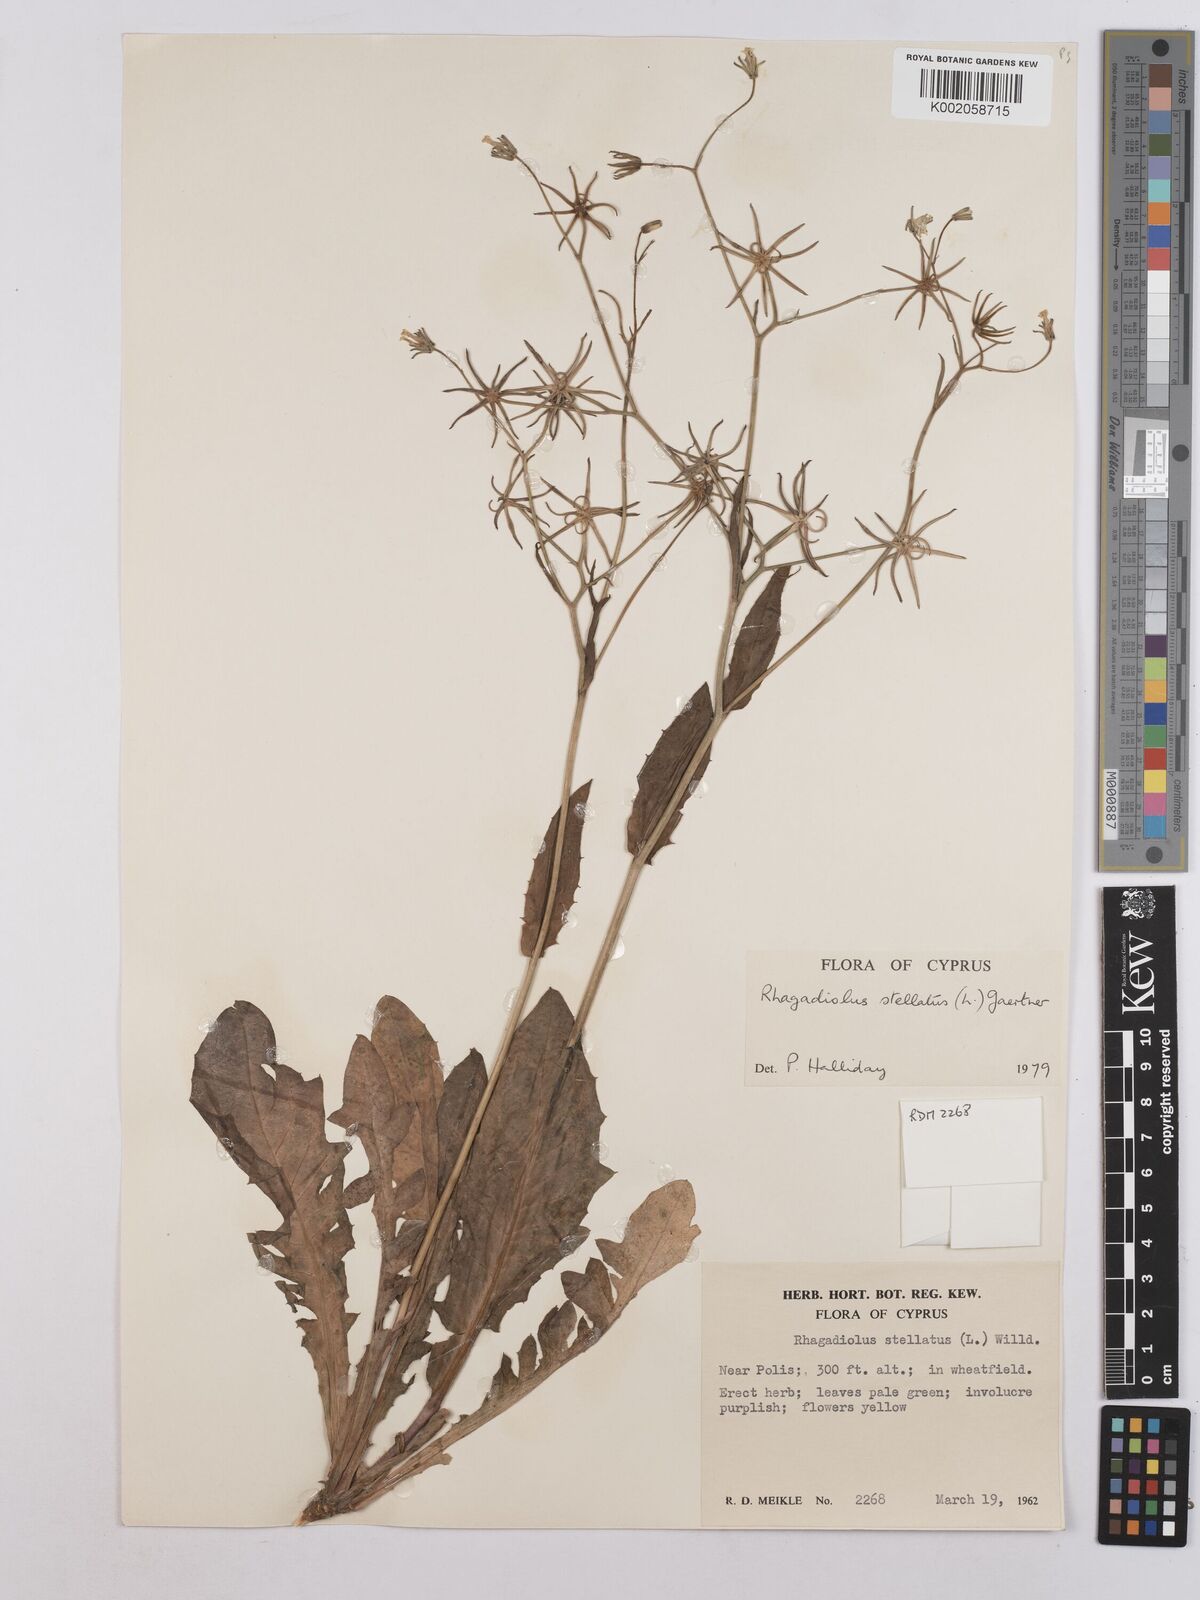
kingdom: Plantae
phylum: Tracheophyta
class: Magnoliopsida
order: Asterales
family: Asteraceae
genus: Rhagadiolus
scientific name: Rhagadiolus stellatus
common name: Star hawkbit
